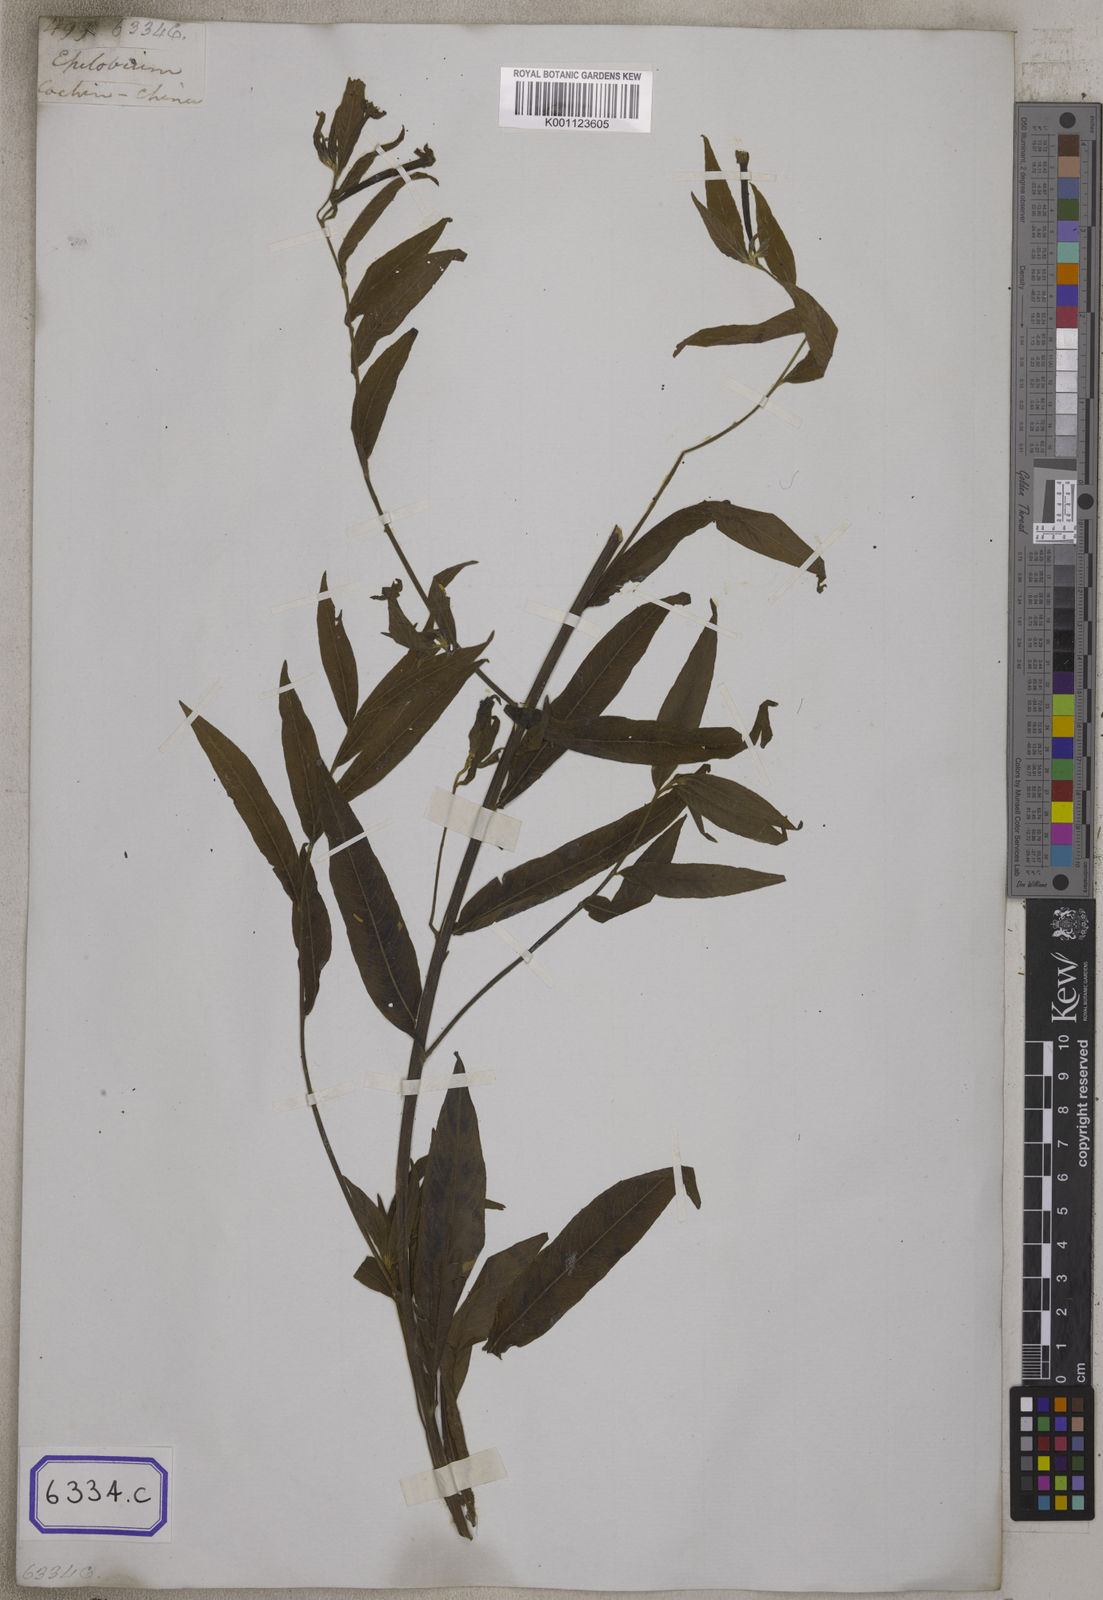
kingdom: Plantae
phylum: Tracheophyta
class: Magnoliopsida
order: Myrtales
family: Onagraceae
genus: Ludwigia
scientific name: Ludwigia octovalvis
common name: Water-primrose
